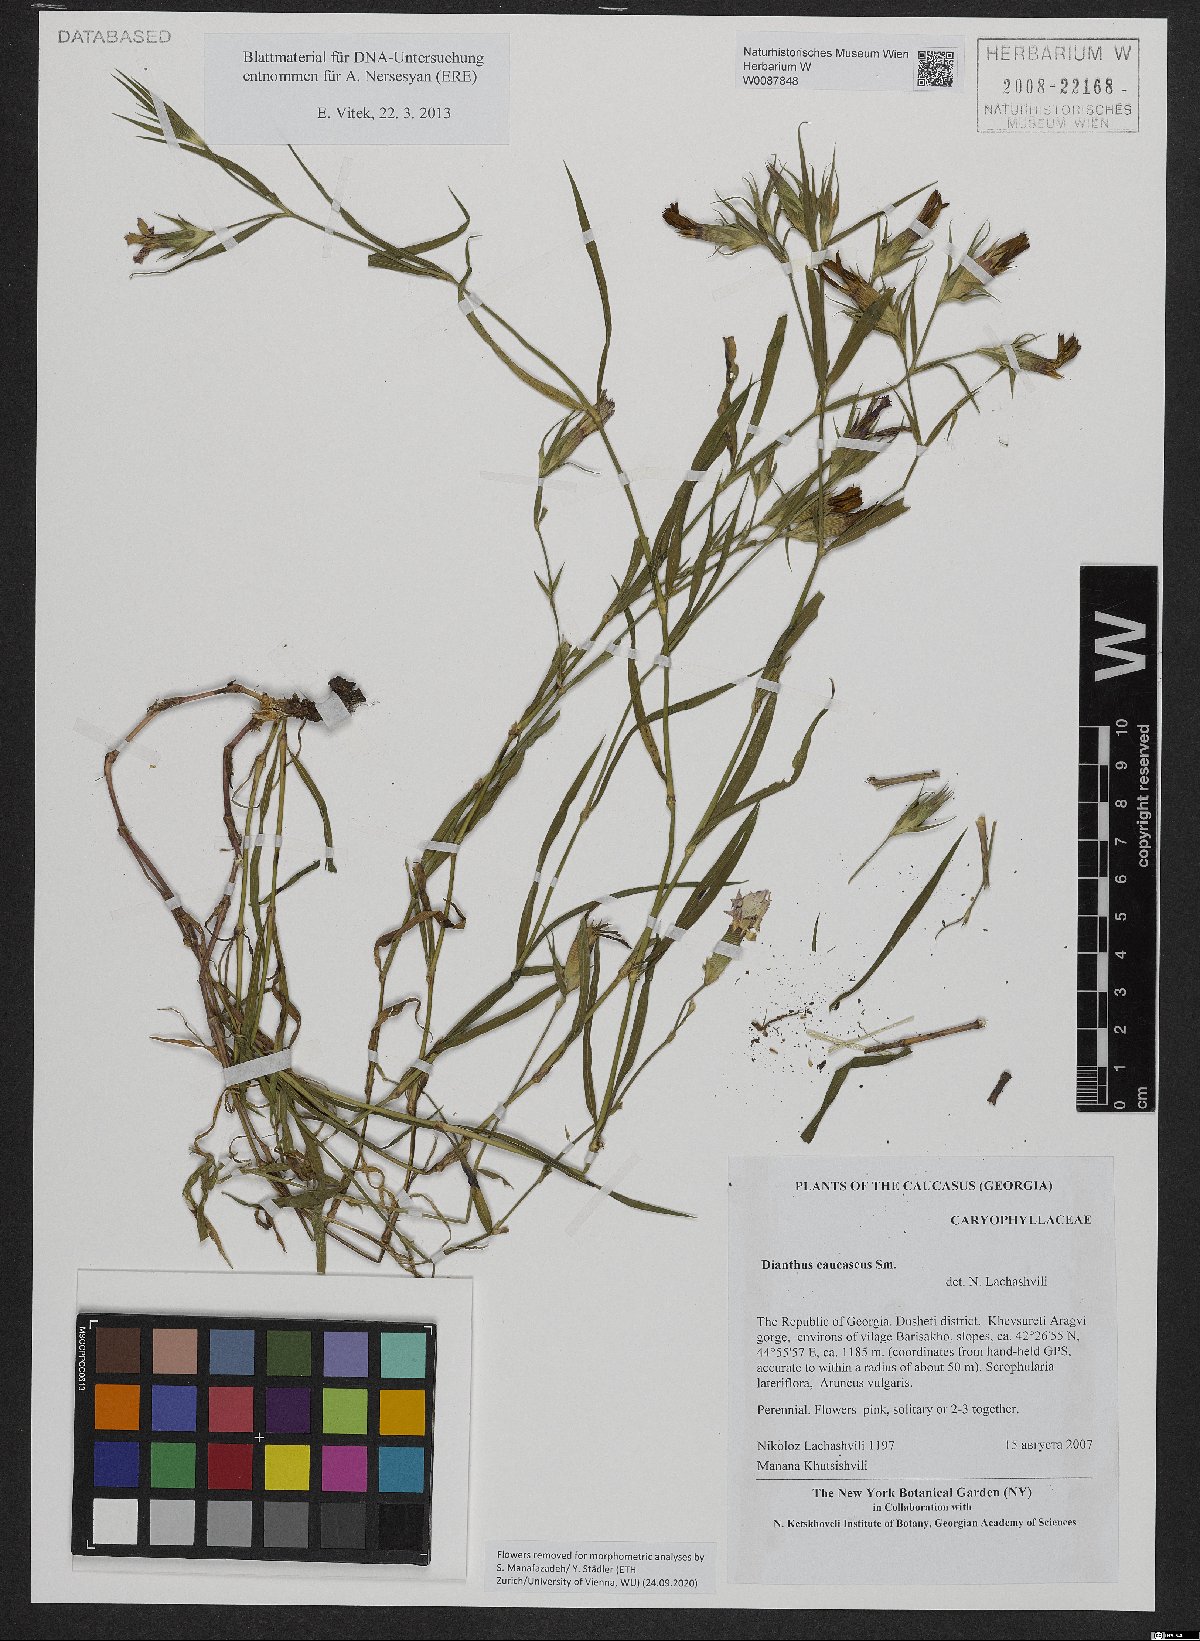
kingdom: Plantae
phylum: Tracheophyta
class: Magnoliopsida
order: Caryophyllales
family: Caryophyllaceae
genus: Dianthus
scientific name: Dianthus caucaseus
